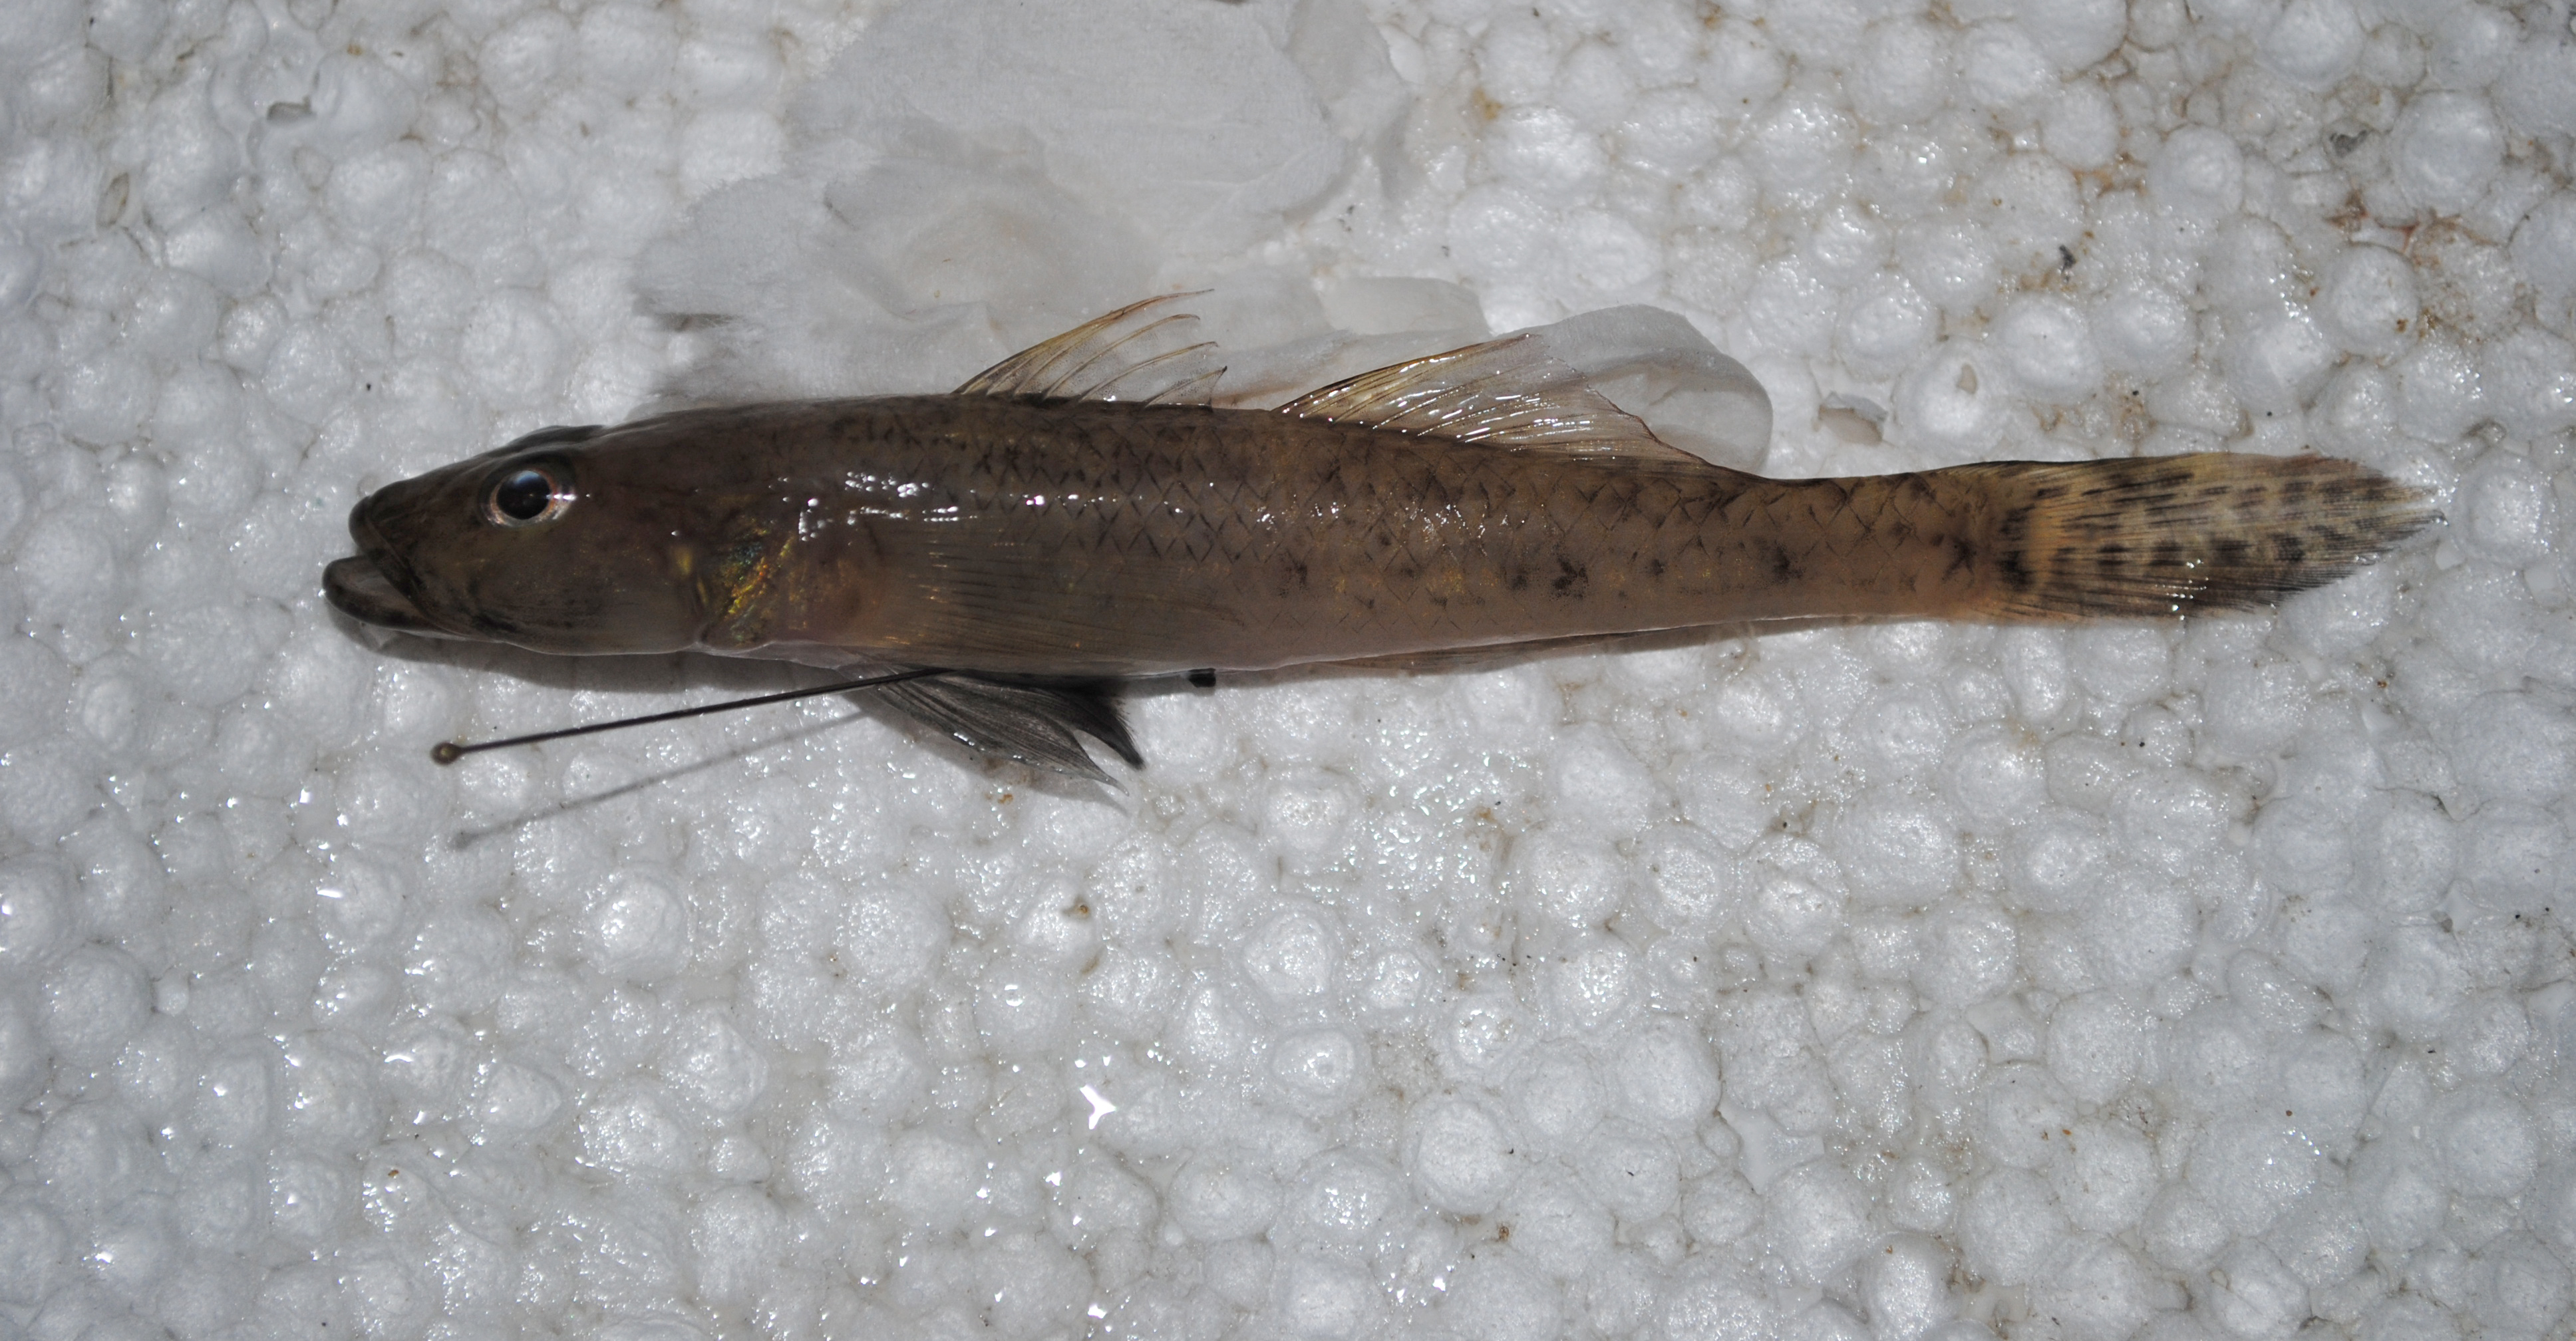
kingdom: Animalia
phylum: Chordata
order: Perciformes
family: Gobiidae
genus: Glossogobius
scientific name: Glossogobius giuris
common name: Tank goby
